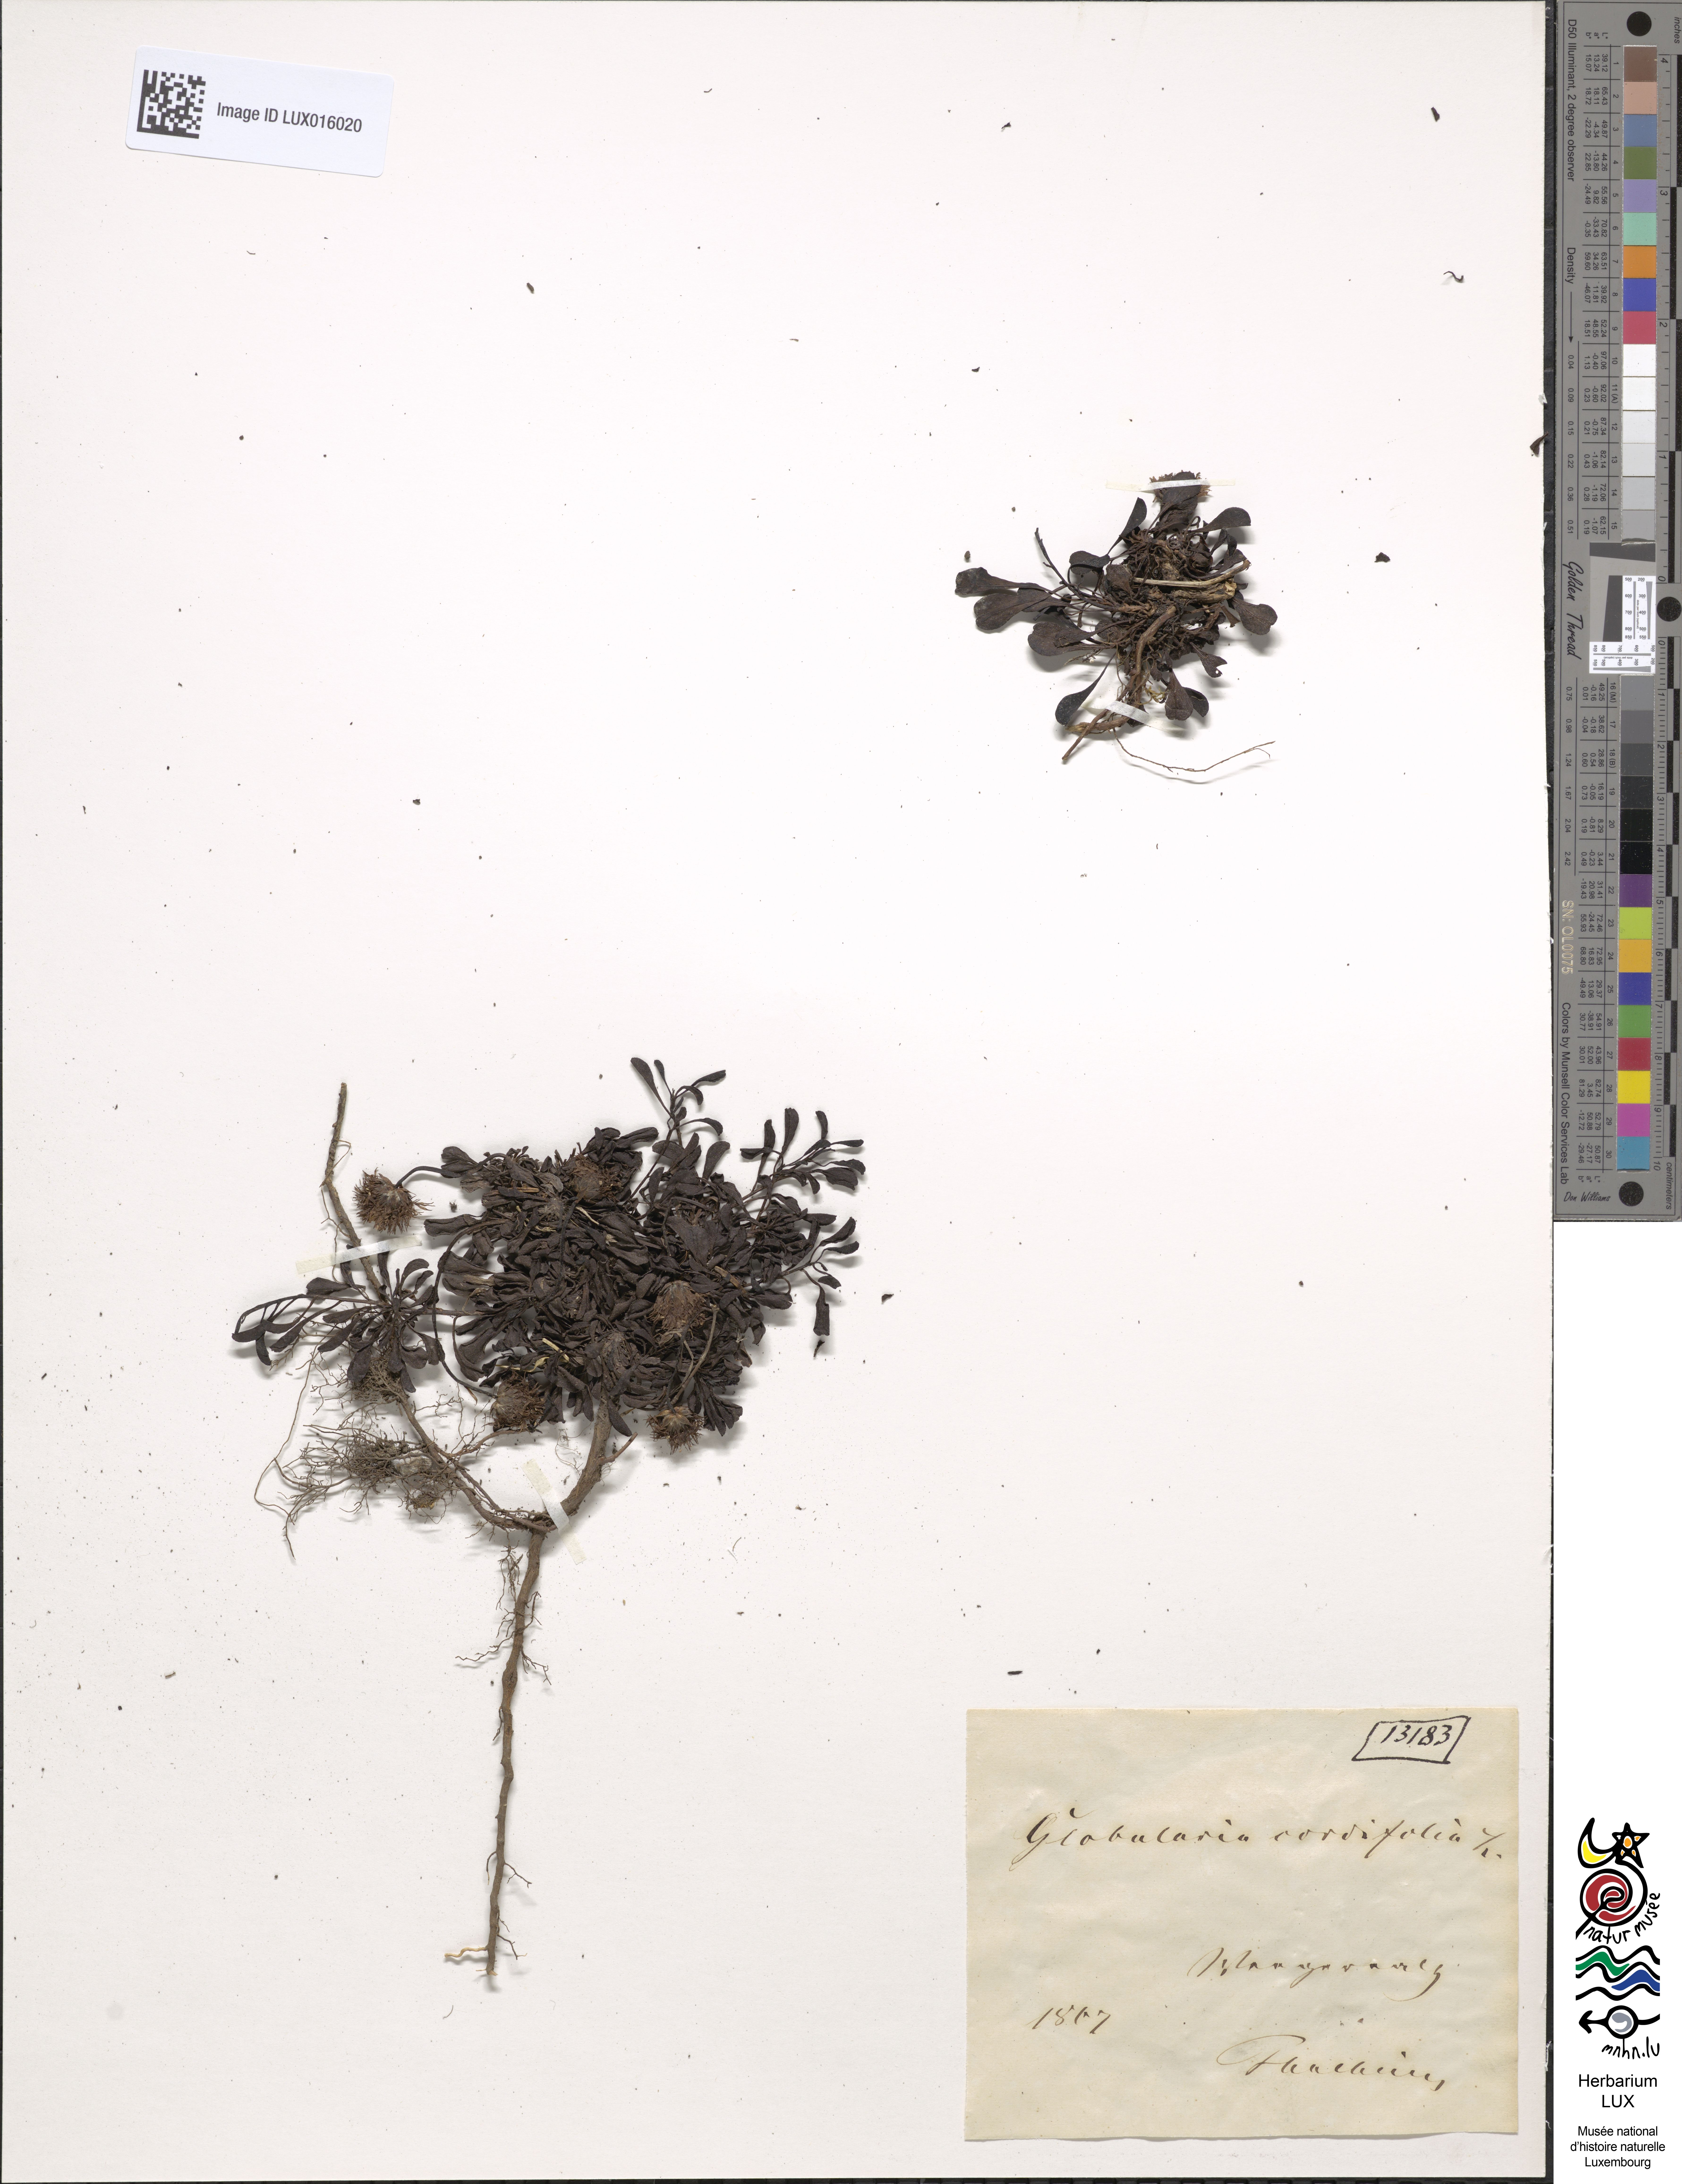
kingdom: Plantae
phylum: Tracheophyta
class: Magnoliopsida
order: Lamiales
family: Plantaginaceae
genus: Globularia
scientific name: Globularia cordifolia
